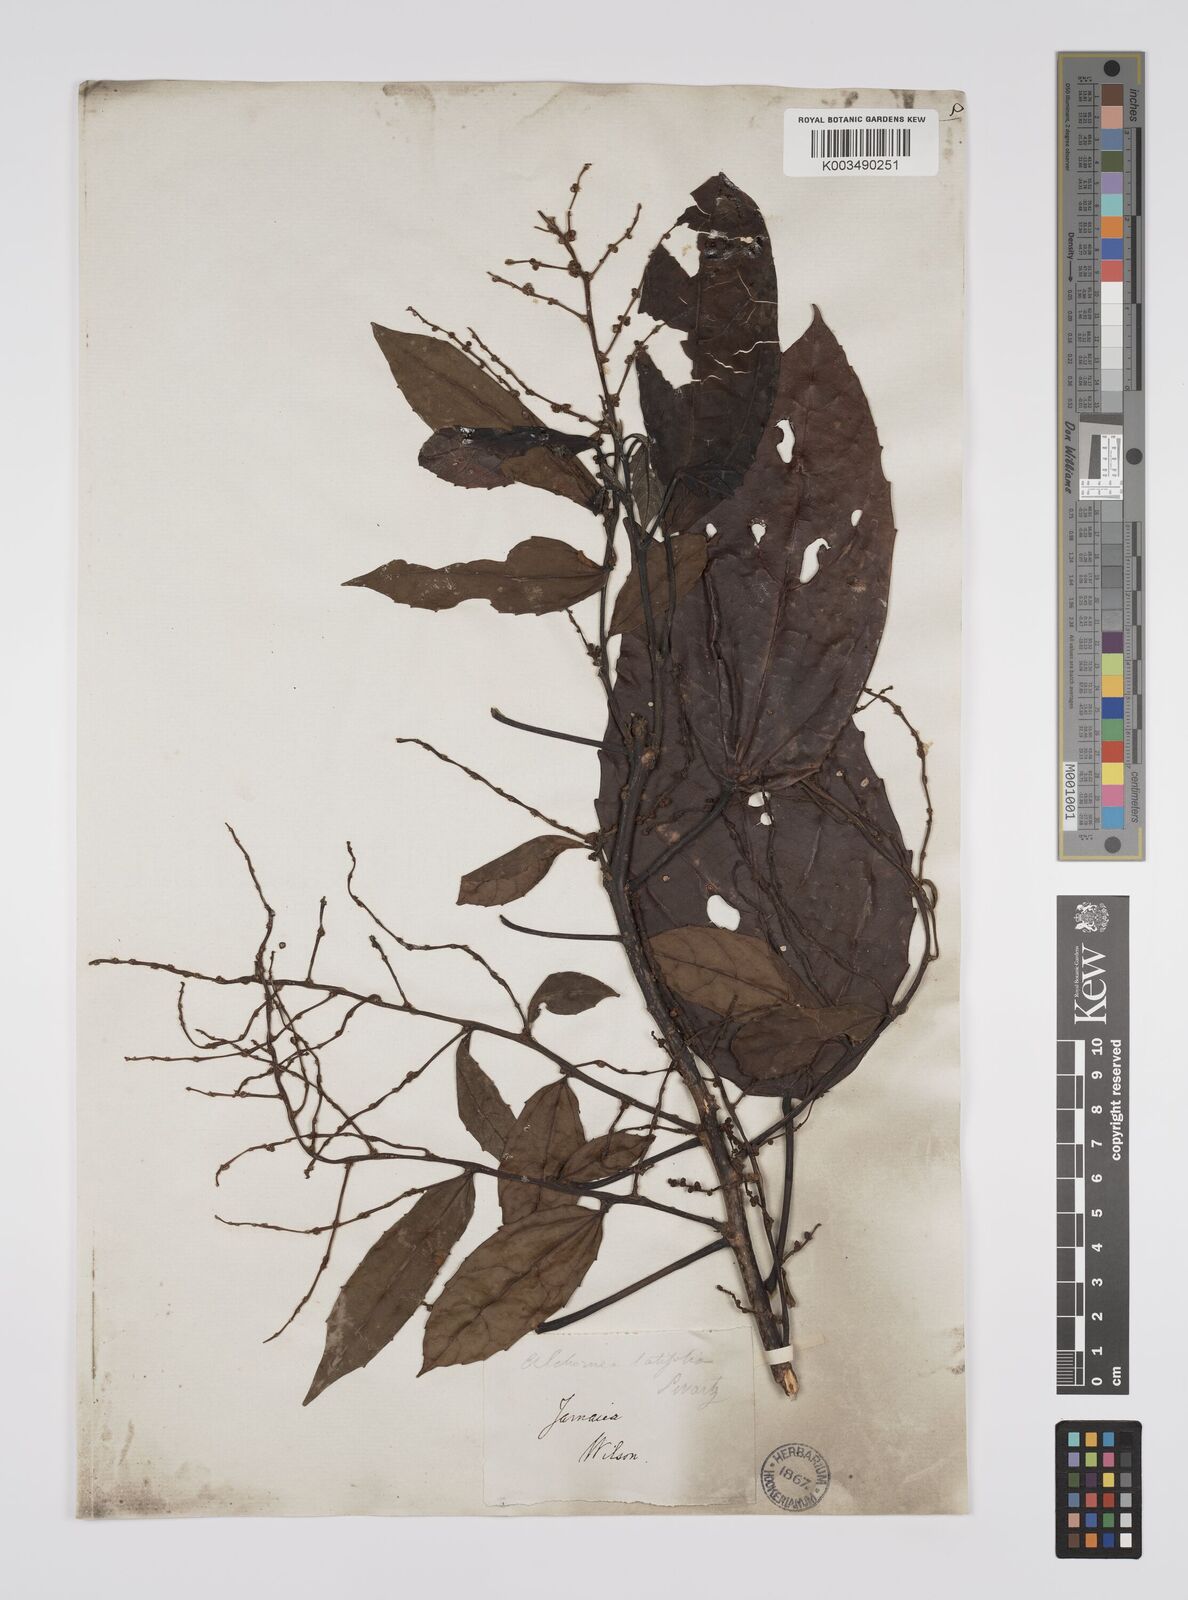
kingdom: Plantae
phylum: Tracheophyta
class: Magnoliopsida
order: Malpighiales
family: Euphorbiaceae
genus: Alchornea
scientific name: Alchornea latifolia
